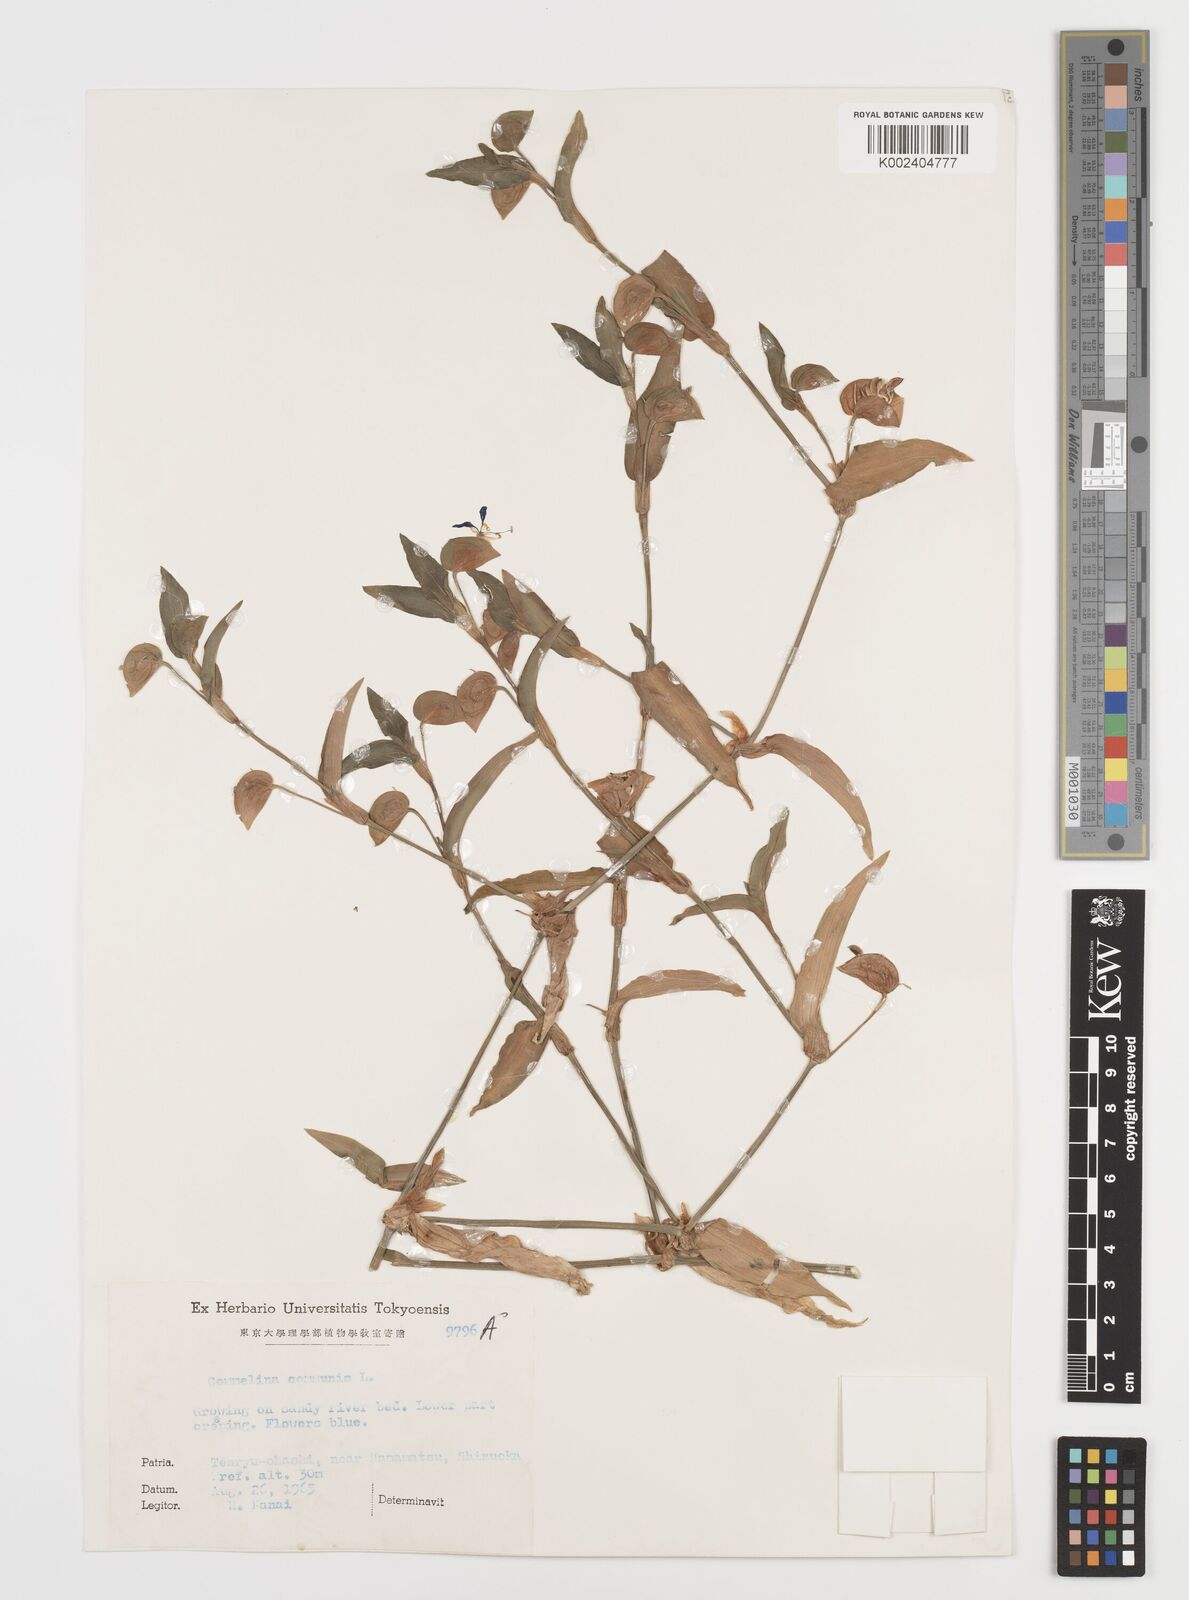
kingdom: Plantae
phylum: Tracheophyta
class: Liliopsida
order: Commelinales
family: Commelinaceae
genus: Commelina
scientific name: Commelina communis
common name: Asiatic dayflower
